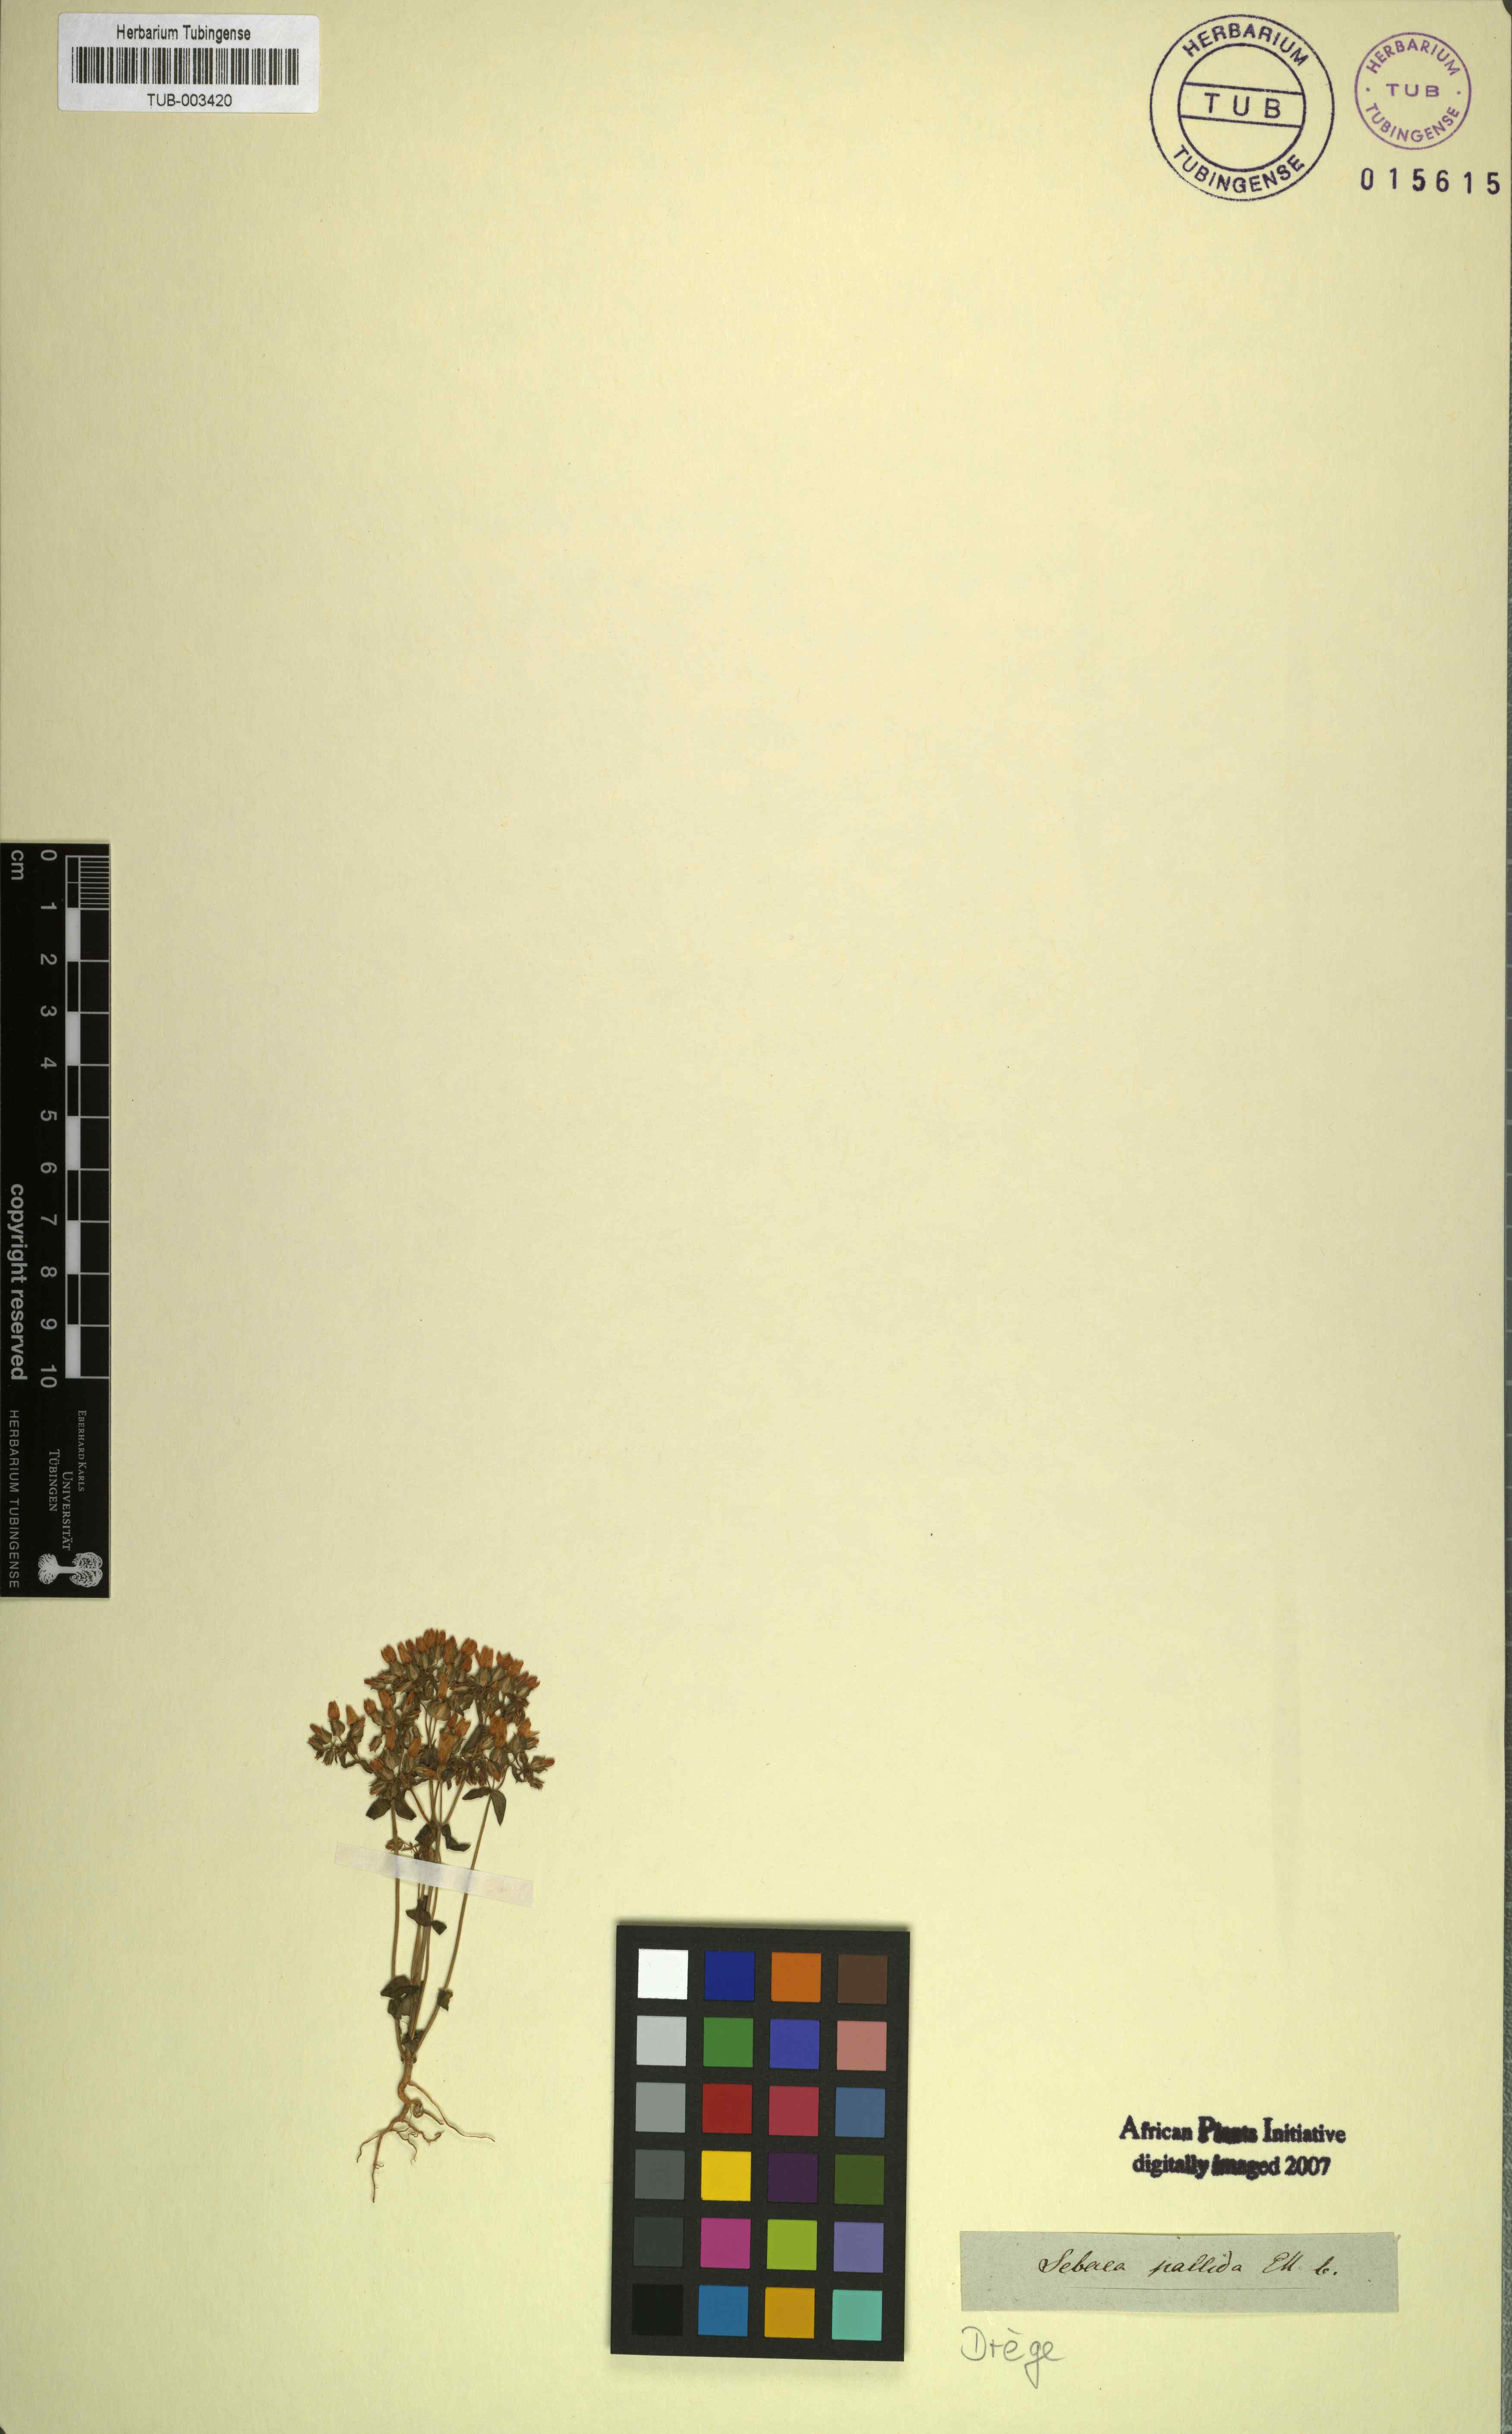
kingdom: Plantae
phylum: Tracheophyta
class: Magnoliopsida
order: Gentianales
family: Gentianaceae
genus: Sebaea
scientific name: Sebaea aurea
